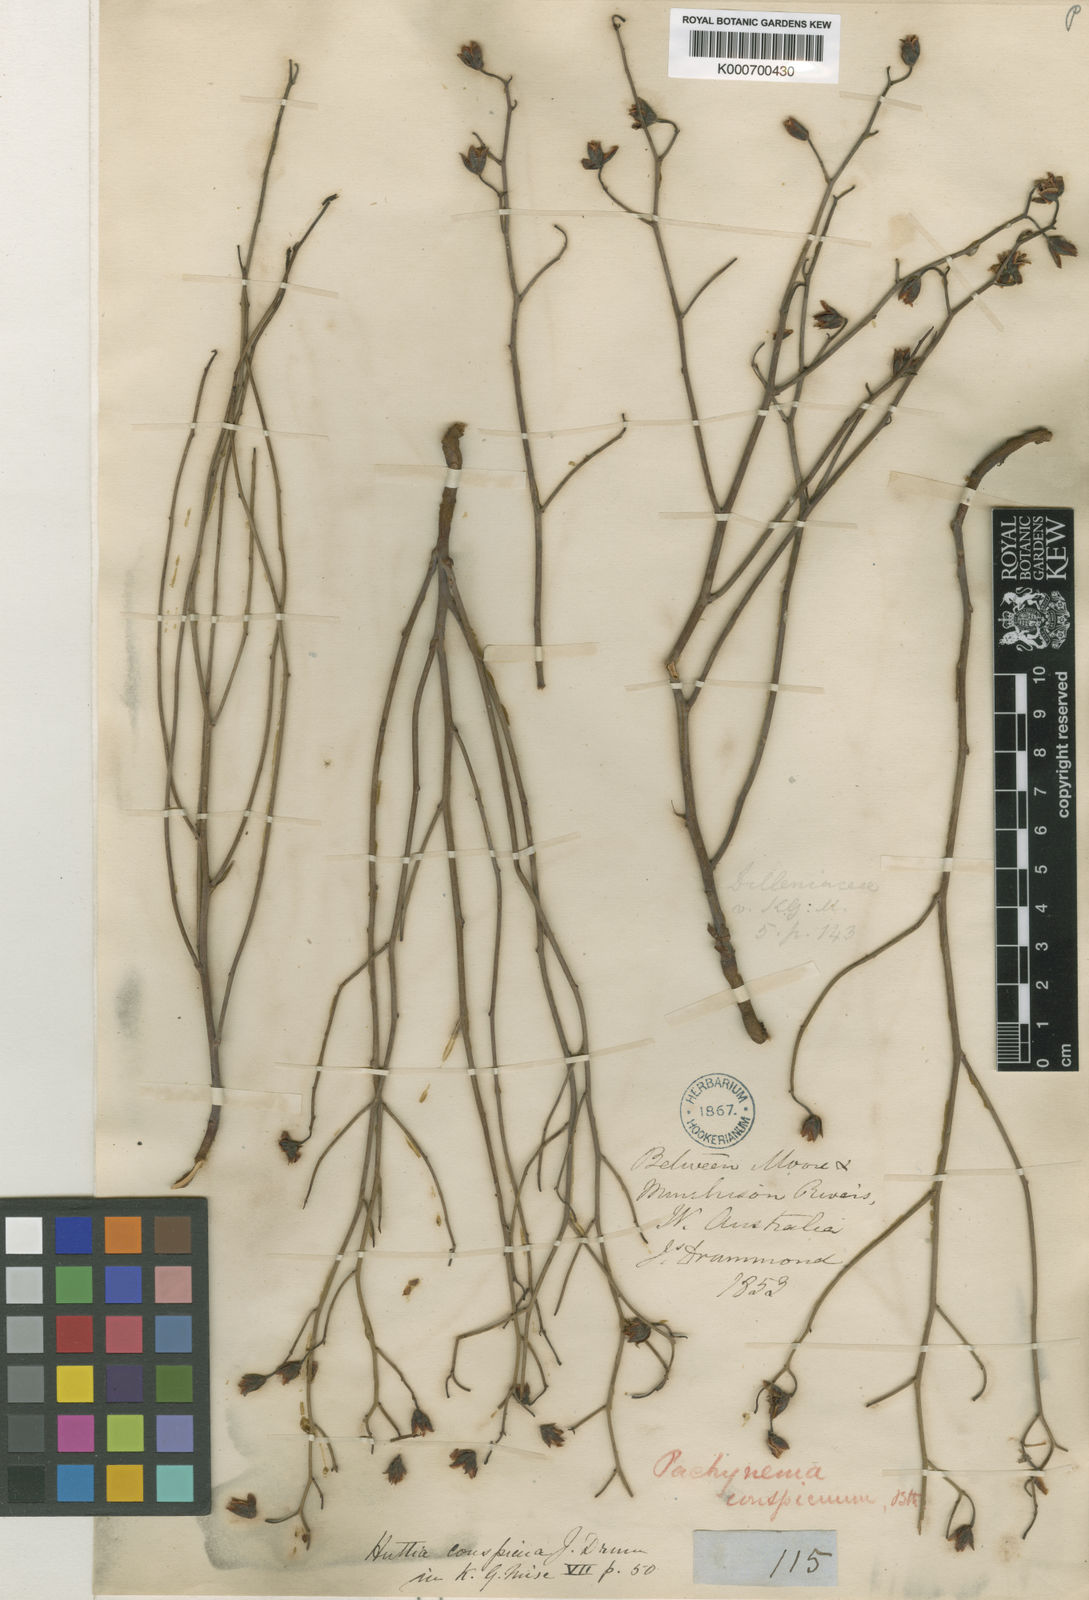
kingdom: Plantae
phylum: Tracheophyta
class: Magnoliopsida
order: Dilleniales
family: Dilleniaceae
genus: Hibbertia
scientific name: Hibbertia
